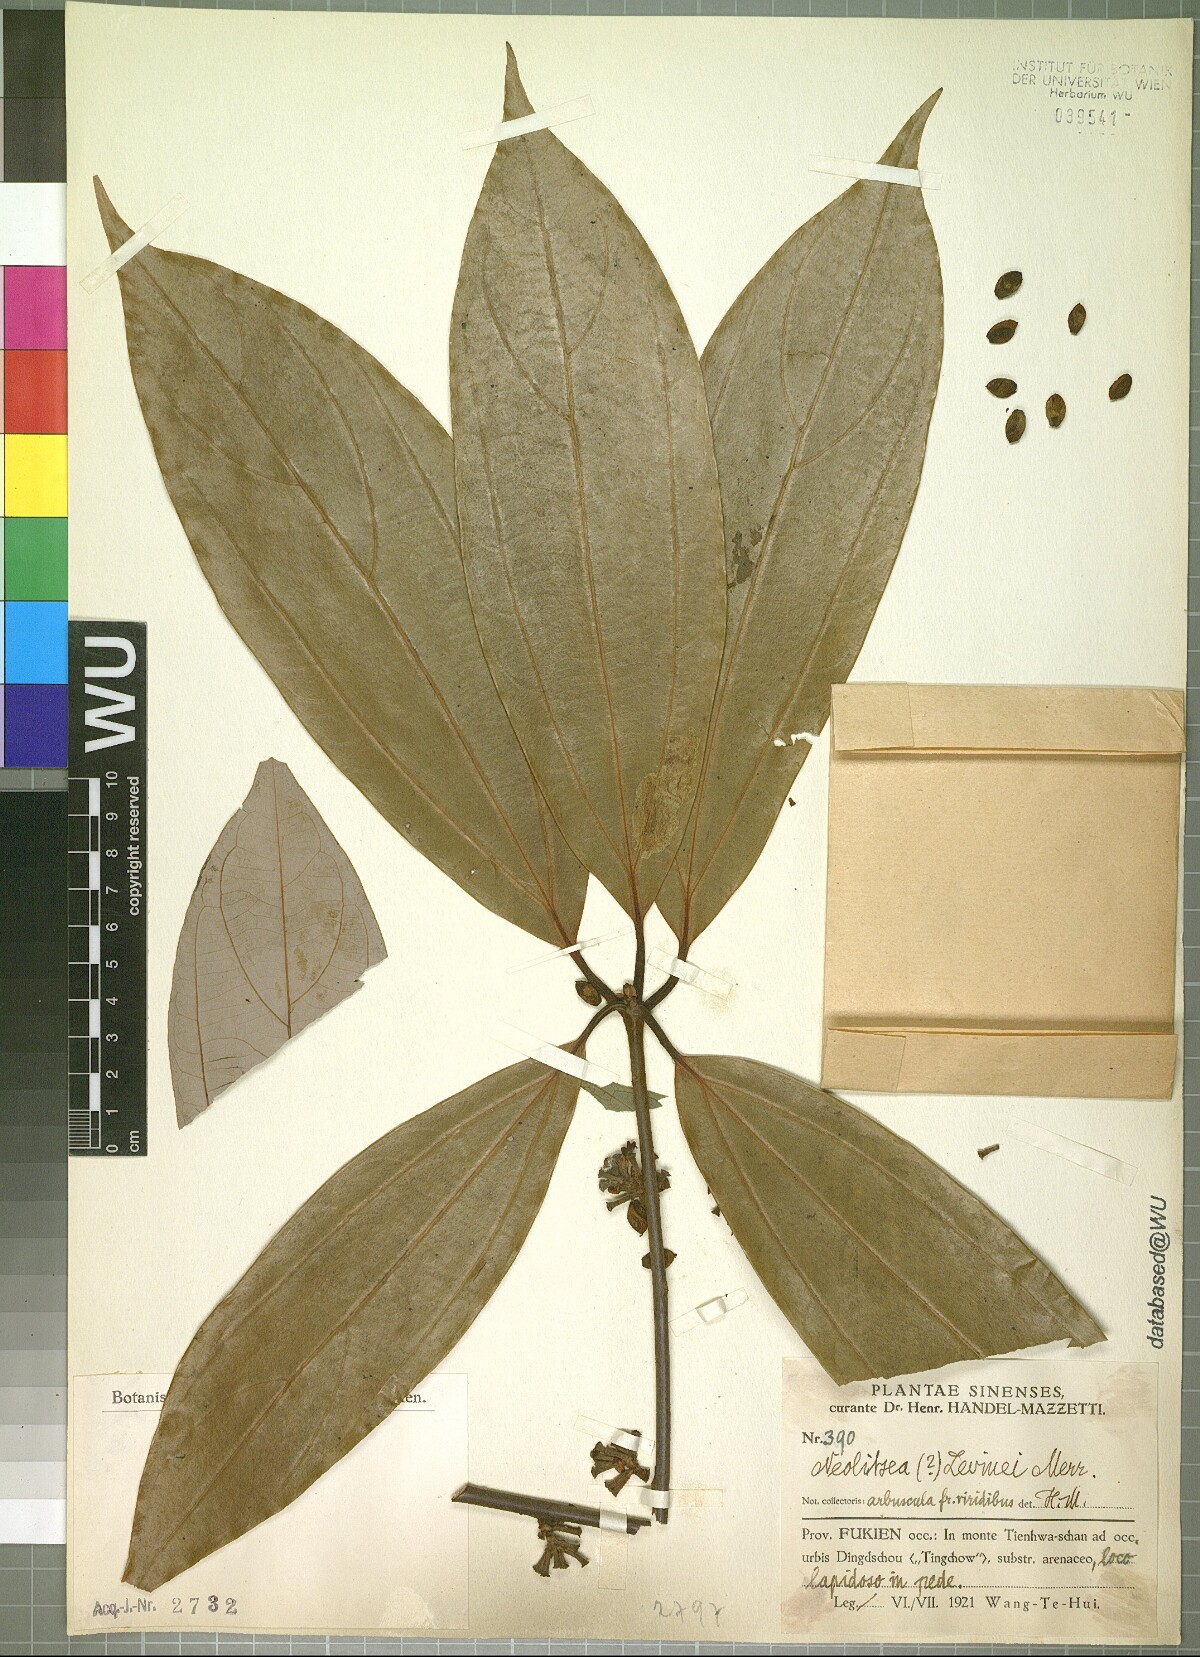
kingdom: Plantae
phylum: Tracheophyta
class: Magnoliopsida
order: Laurales
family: Lauraceae
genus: Neolitsea
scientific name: Neolitsea levinei
